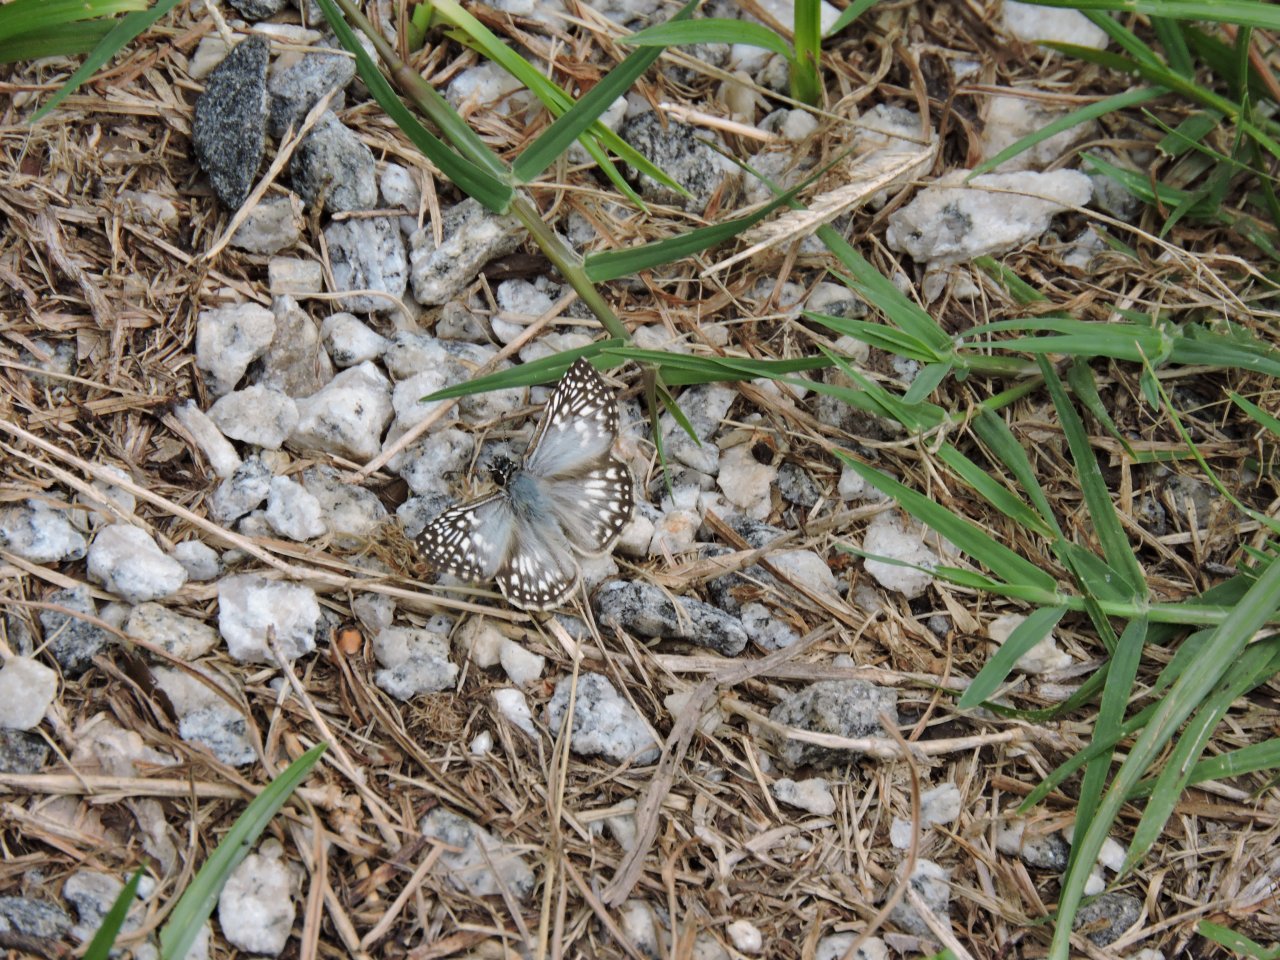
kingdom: Animalia
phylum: Arthropoda
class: Insecta
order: Lepidoptera
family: Hesperiidae
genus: Pyrgus
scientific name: Pyrgus oileus
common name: Tropical Checkered-Skipper
